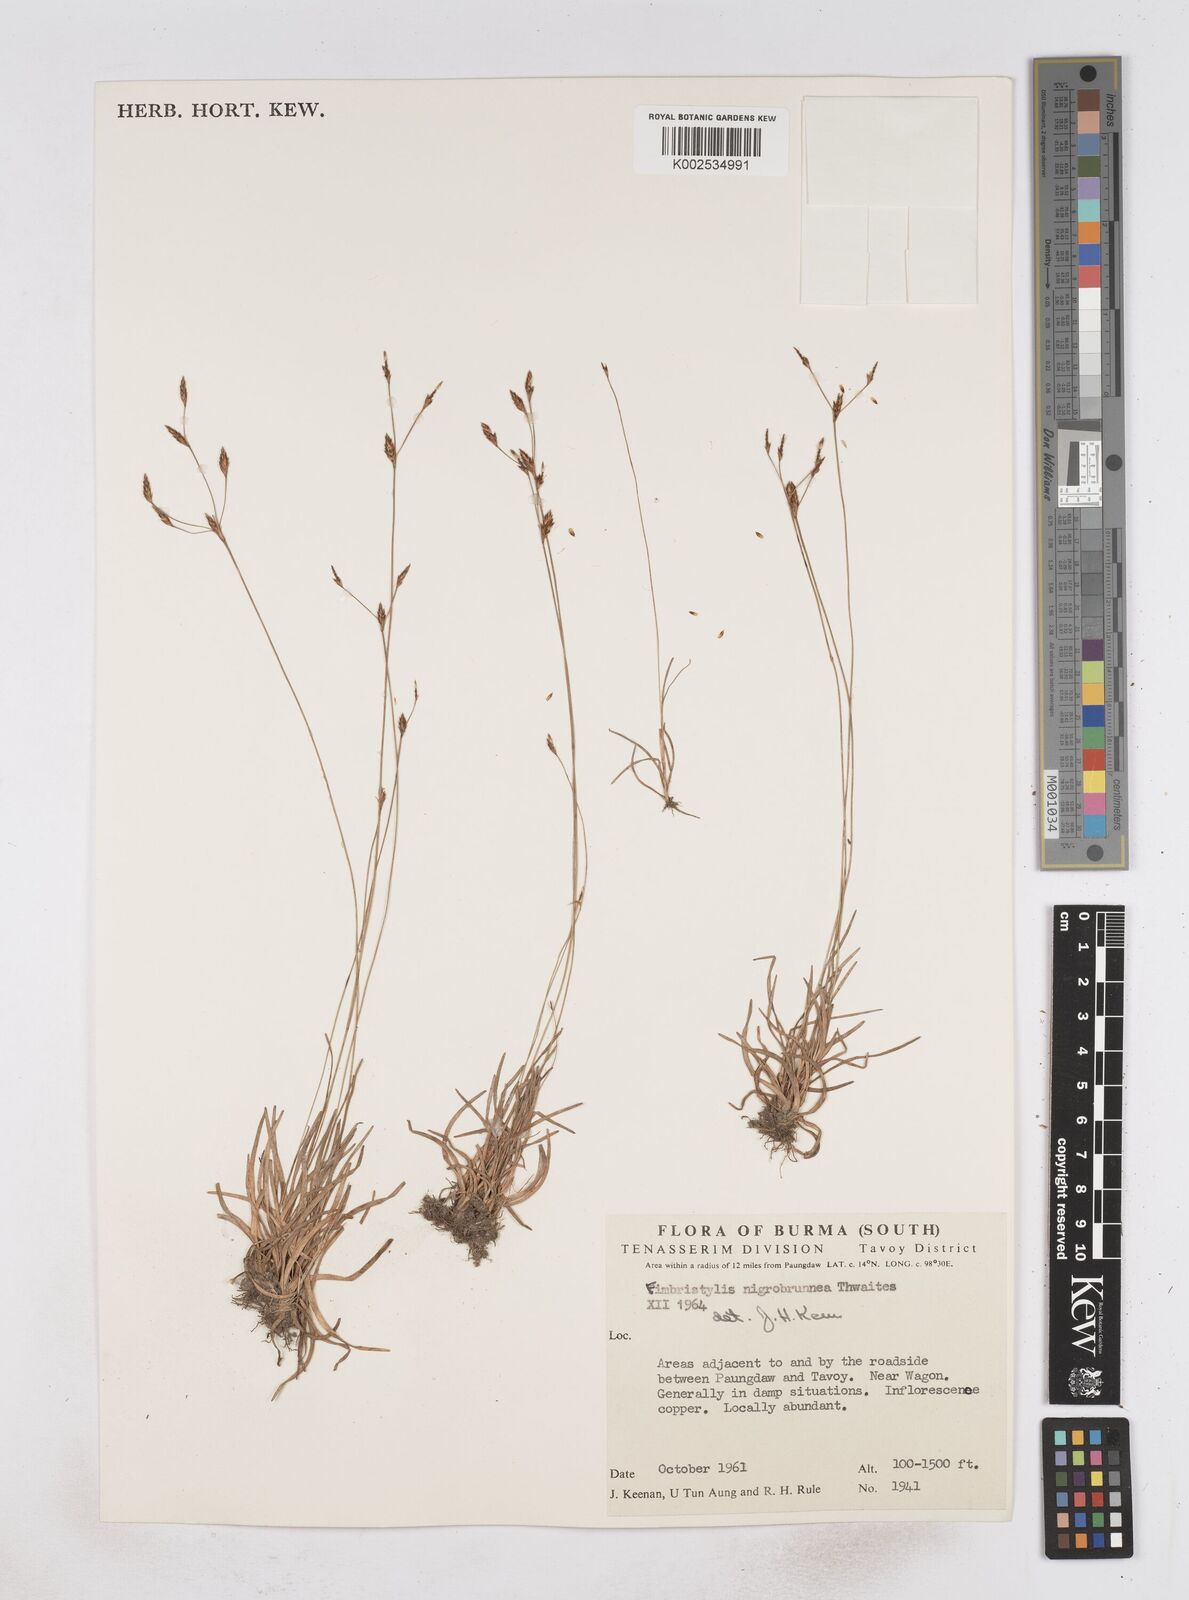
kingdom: Plantae
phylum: Tracheophyta
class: Liliopsida
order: Poales
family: Cyperaceae
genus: Fimbristylis
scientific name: Fimbristylis nigrobrunnea
